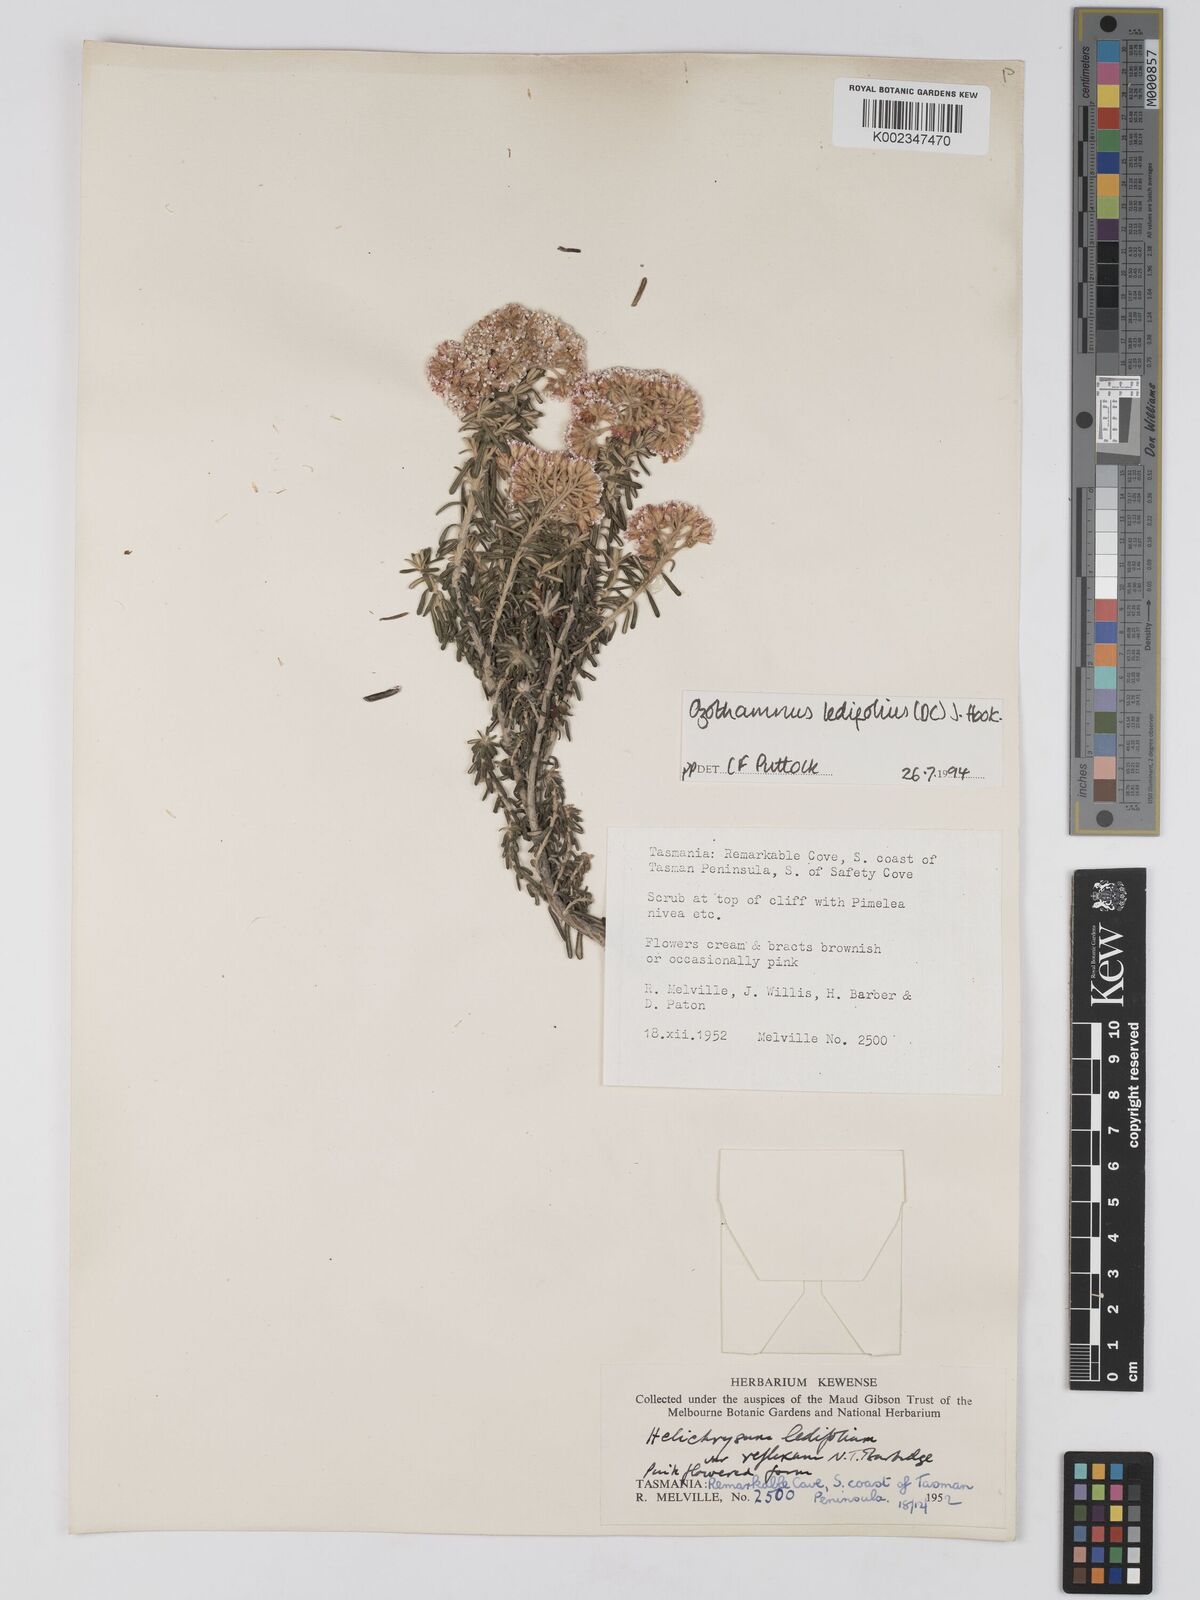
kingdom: Plantae
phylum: Tracheophyta
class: Magnoliopsida
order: Asterales
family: Asteraceae
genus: Ozothamnus
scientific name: Ozothamnus ledifolius
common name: Kerosene-weed
